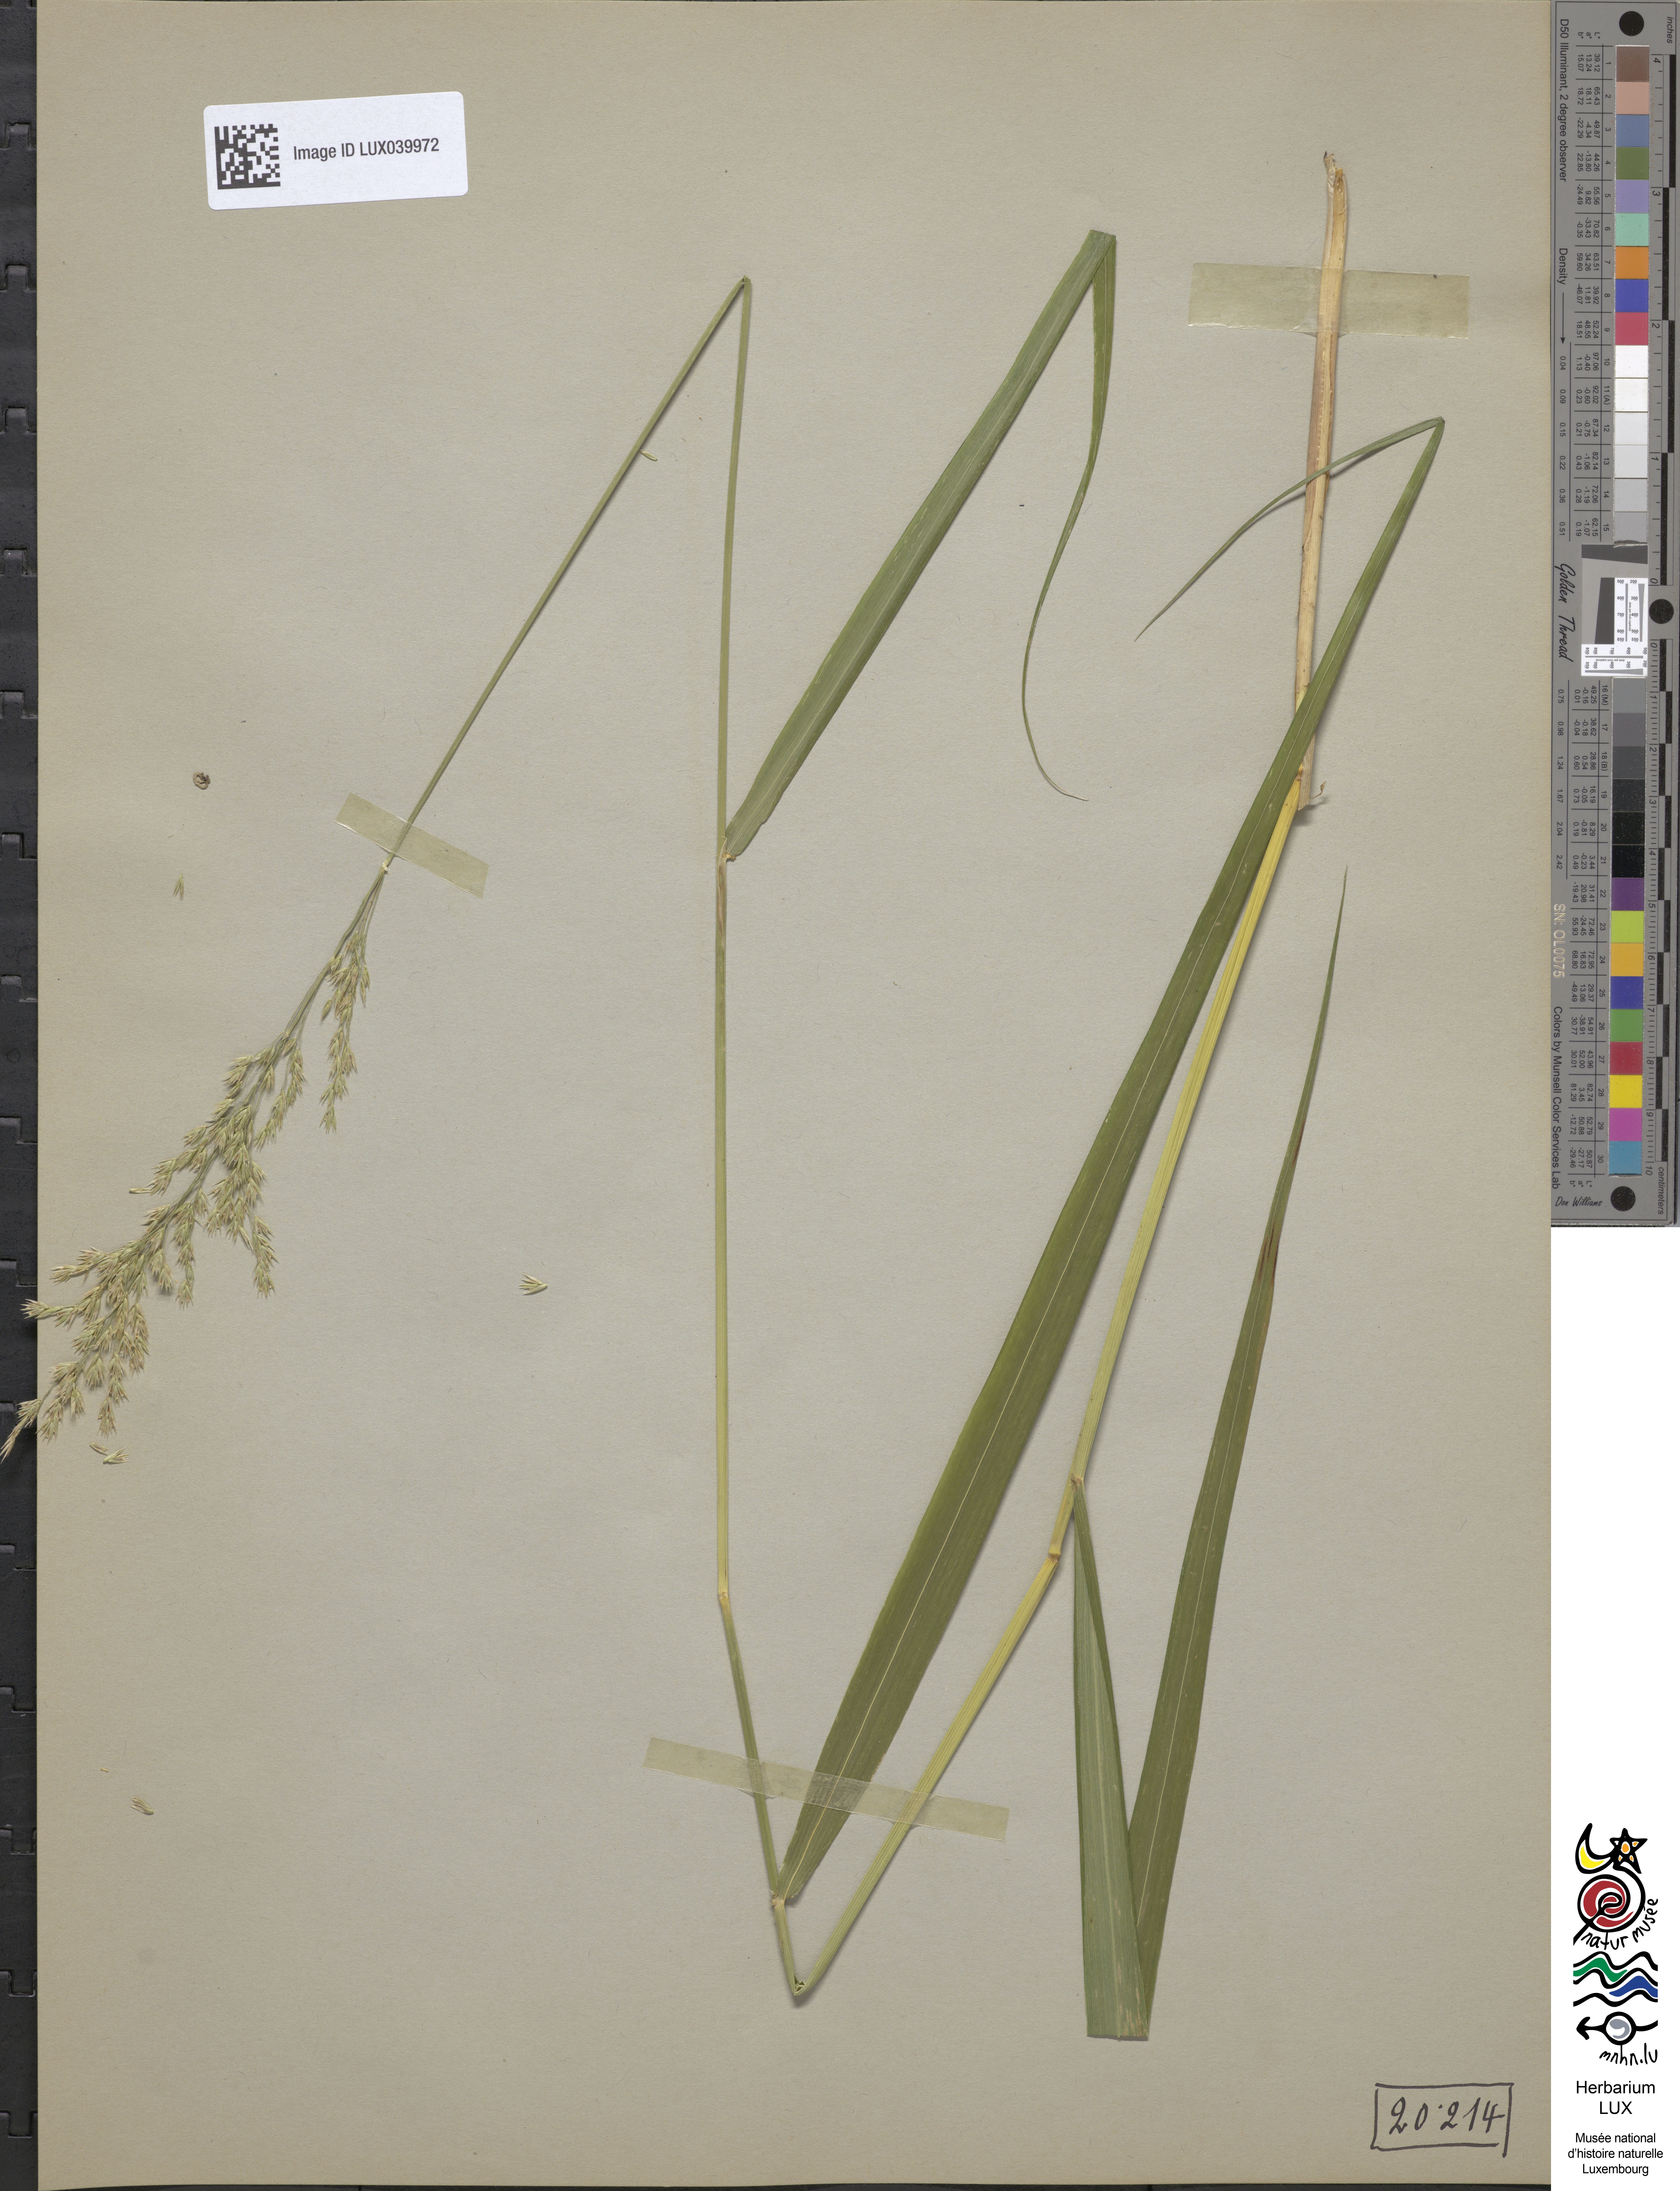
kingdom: Plantae
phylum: Tracheophyta
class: Liliopsida
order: Poales
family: Poaceae
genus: Festuca
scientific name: Festuca altissima
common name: Wood fescue
